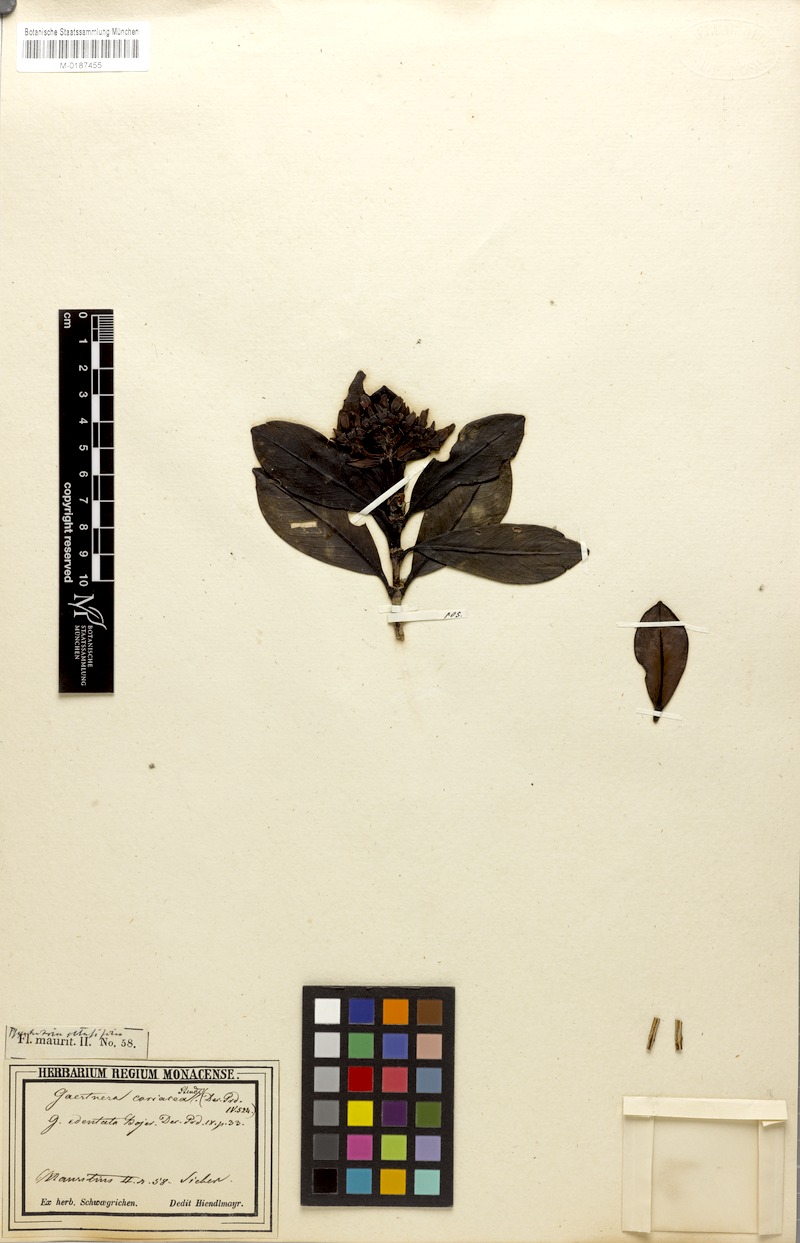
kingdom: Plantae
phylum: Tracheophyta
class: Magnoliopsida
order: Gentianales
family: Rubiaceae
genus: Gaertnera
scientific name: Gaertnera edentata
